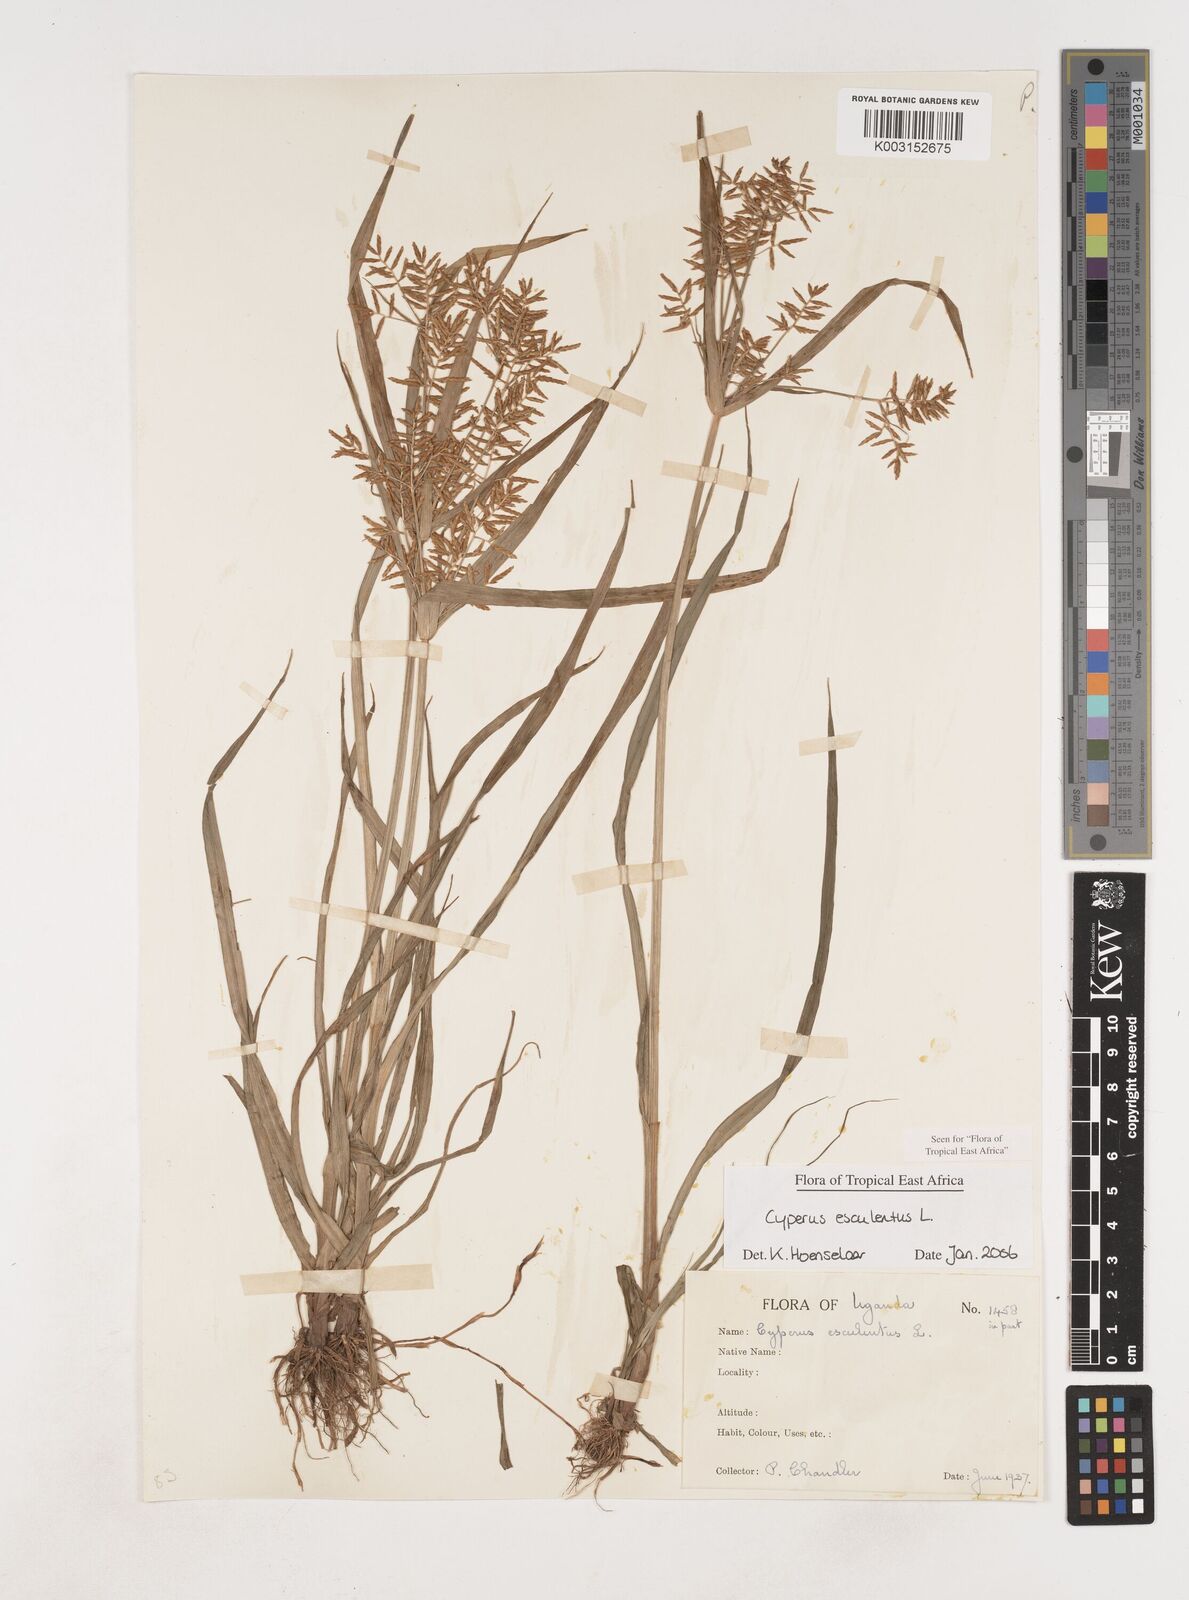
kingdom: Plantae
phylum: Tracheophyta
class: Liliopsida
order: Poales
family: Cyperaceae
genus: Cyperus
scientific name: Cyperus esculentus
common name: Yellow nutsedge
